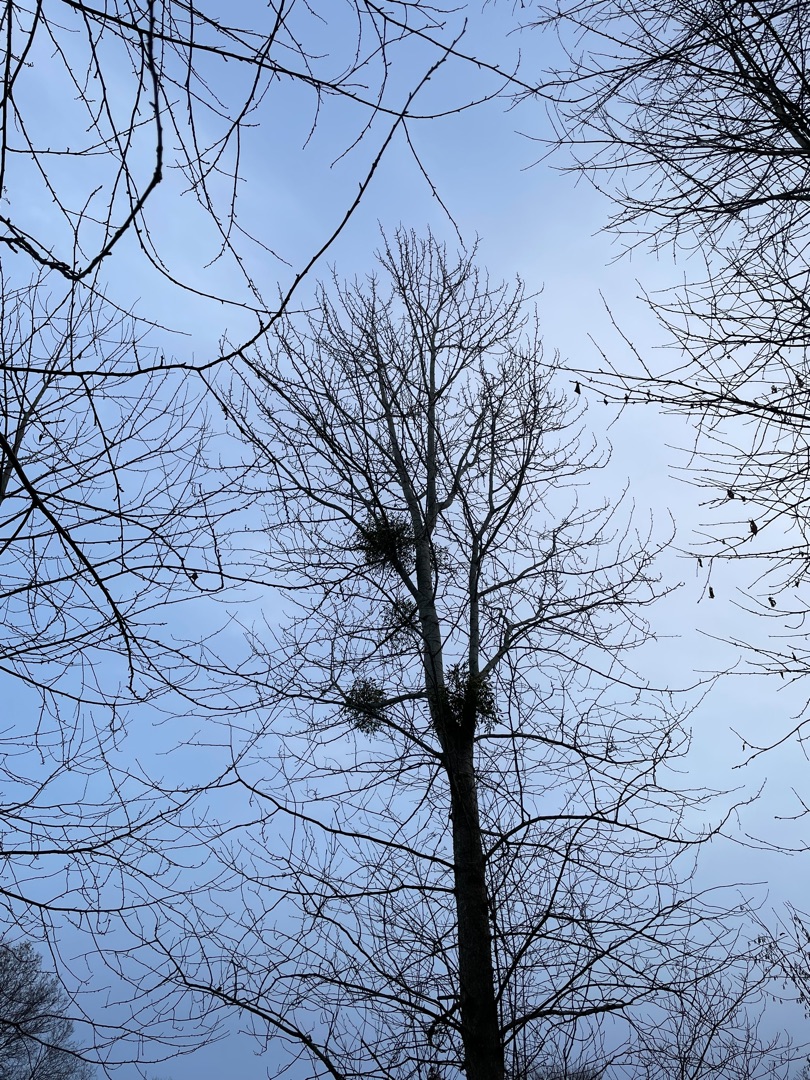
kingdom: Plantae
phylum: Tracheophyta
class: Magnoliopsida
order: Santalales
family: Viscaceae
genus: Viscum
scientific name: Viscum album
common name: Mistelten
